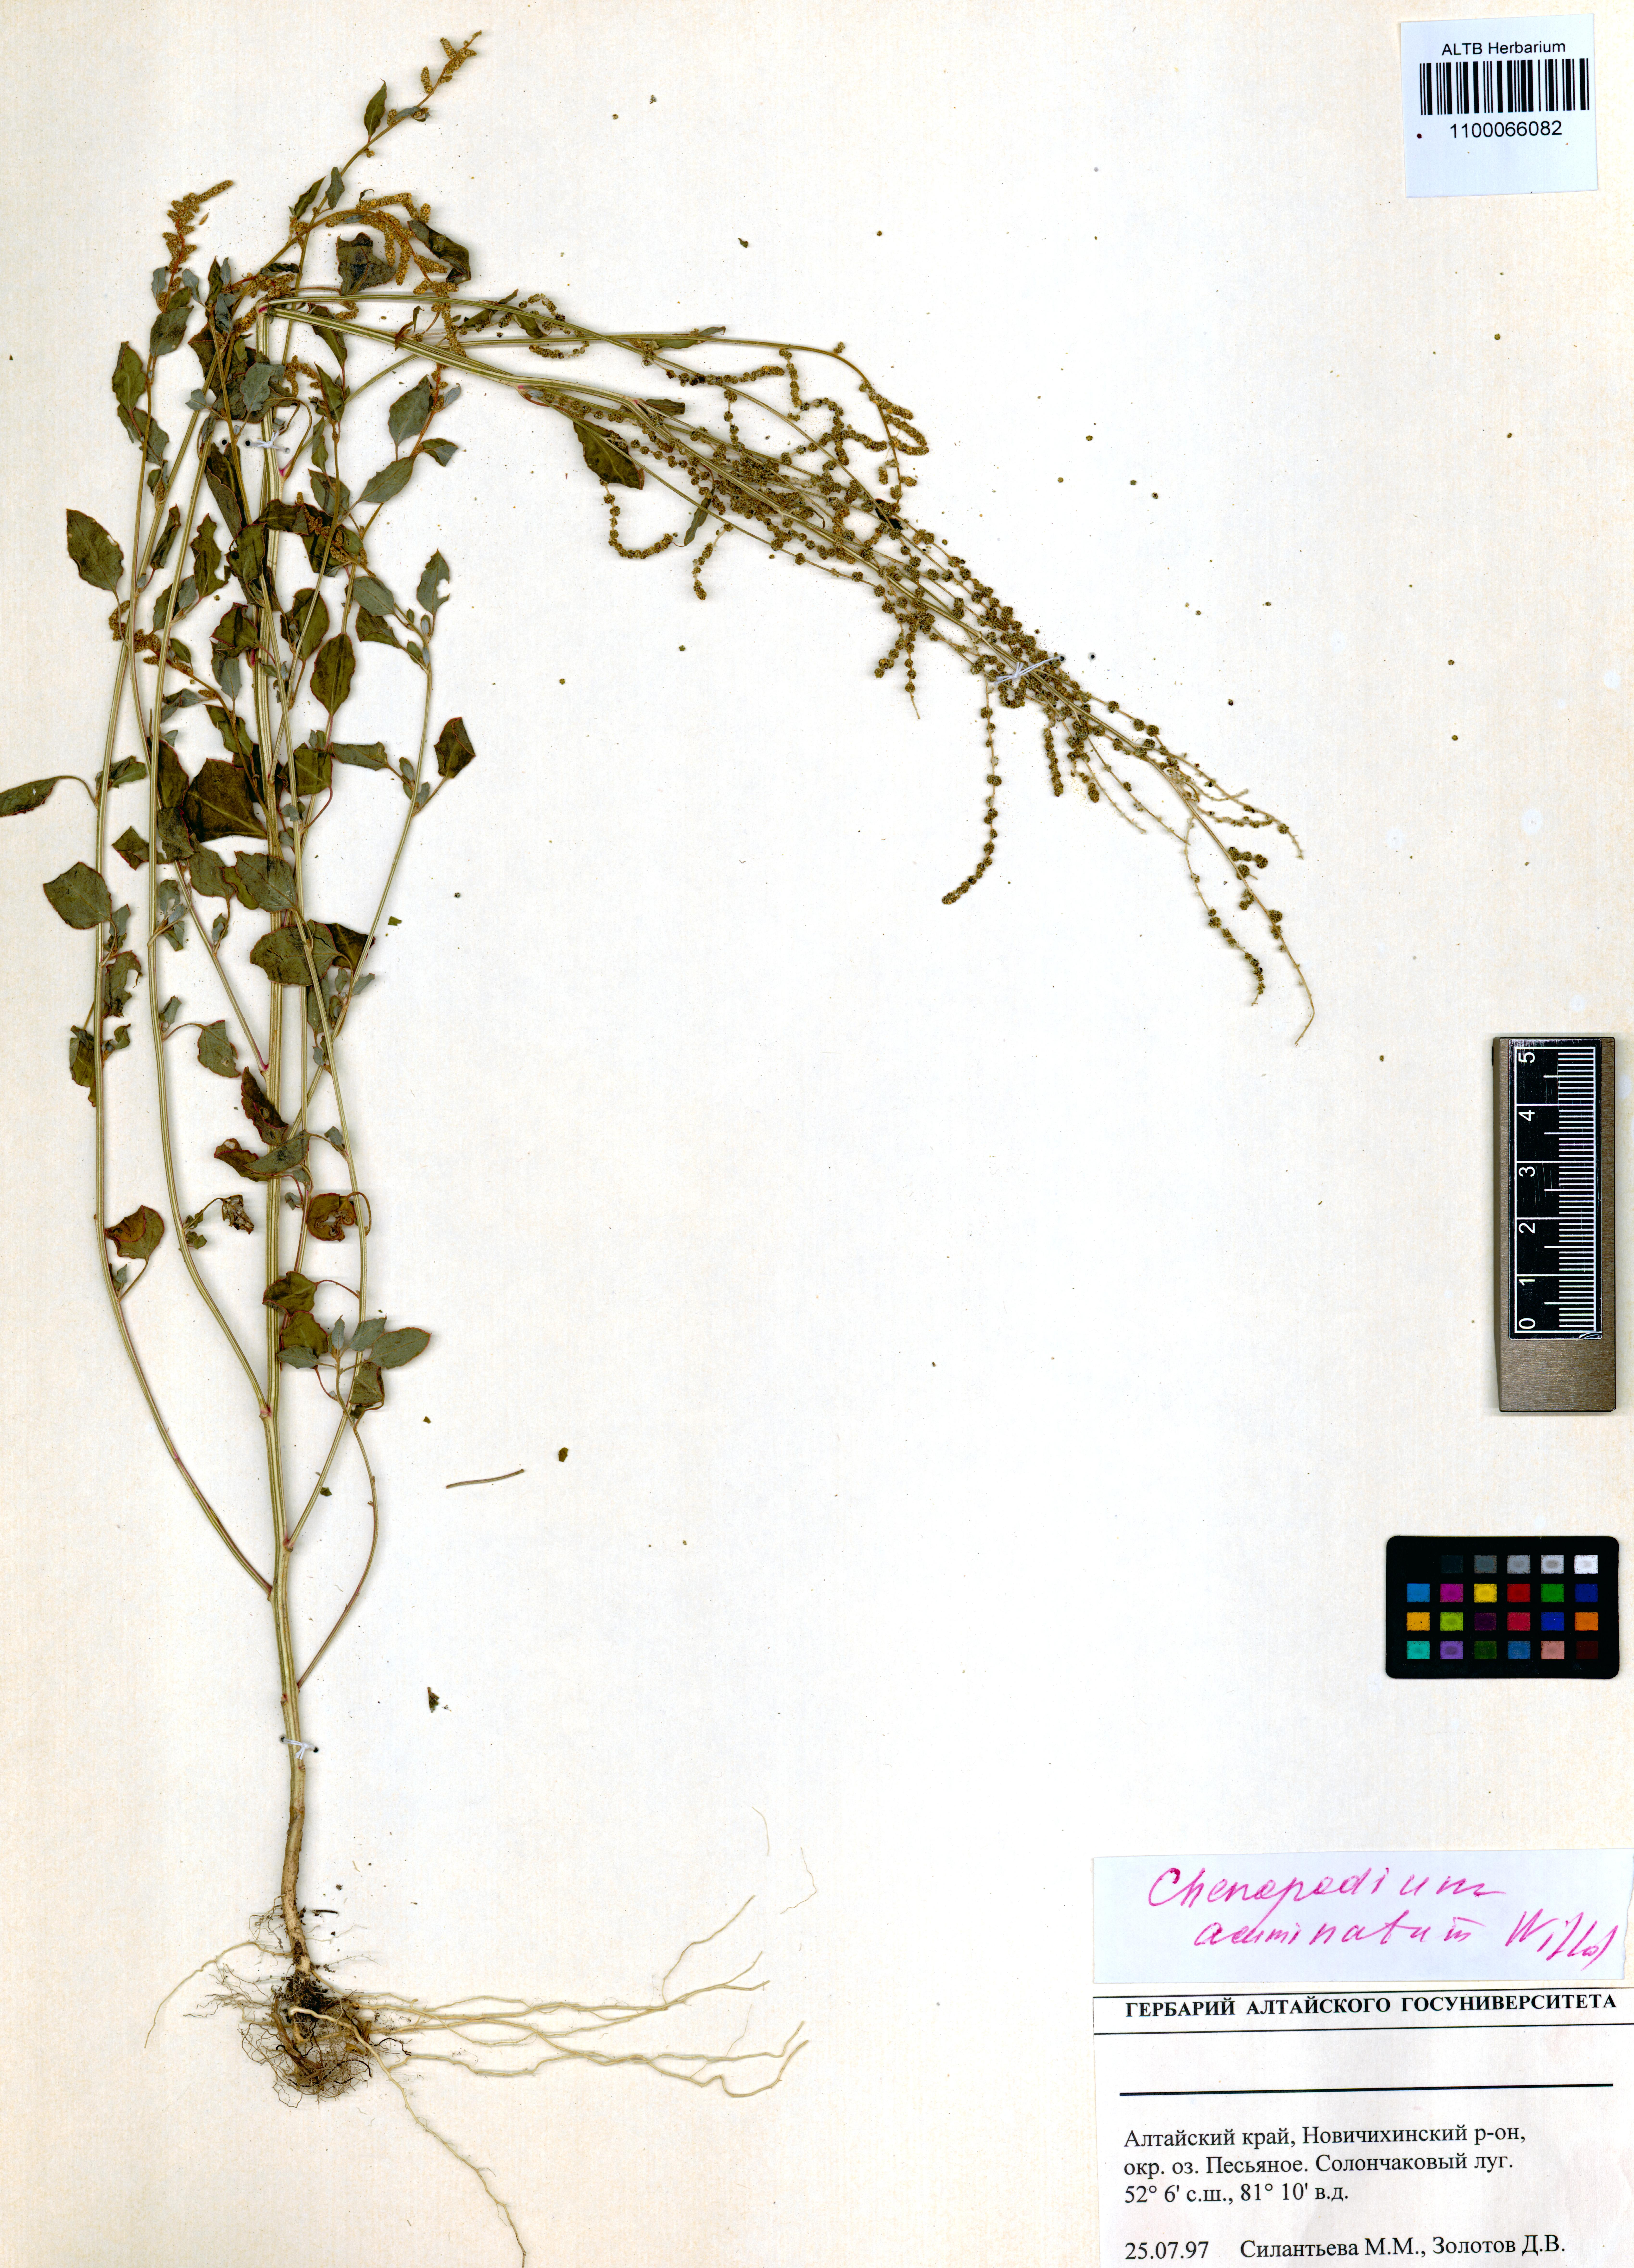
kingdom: Plantae
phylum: Tracheophyta
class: Magnoliopsida
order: Caryophyllales
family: Amaranthaceae
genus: Chenopodium
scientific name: Chenopodium acuminatum
